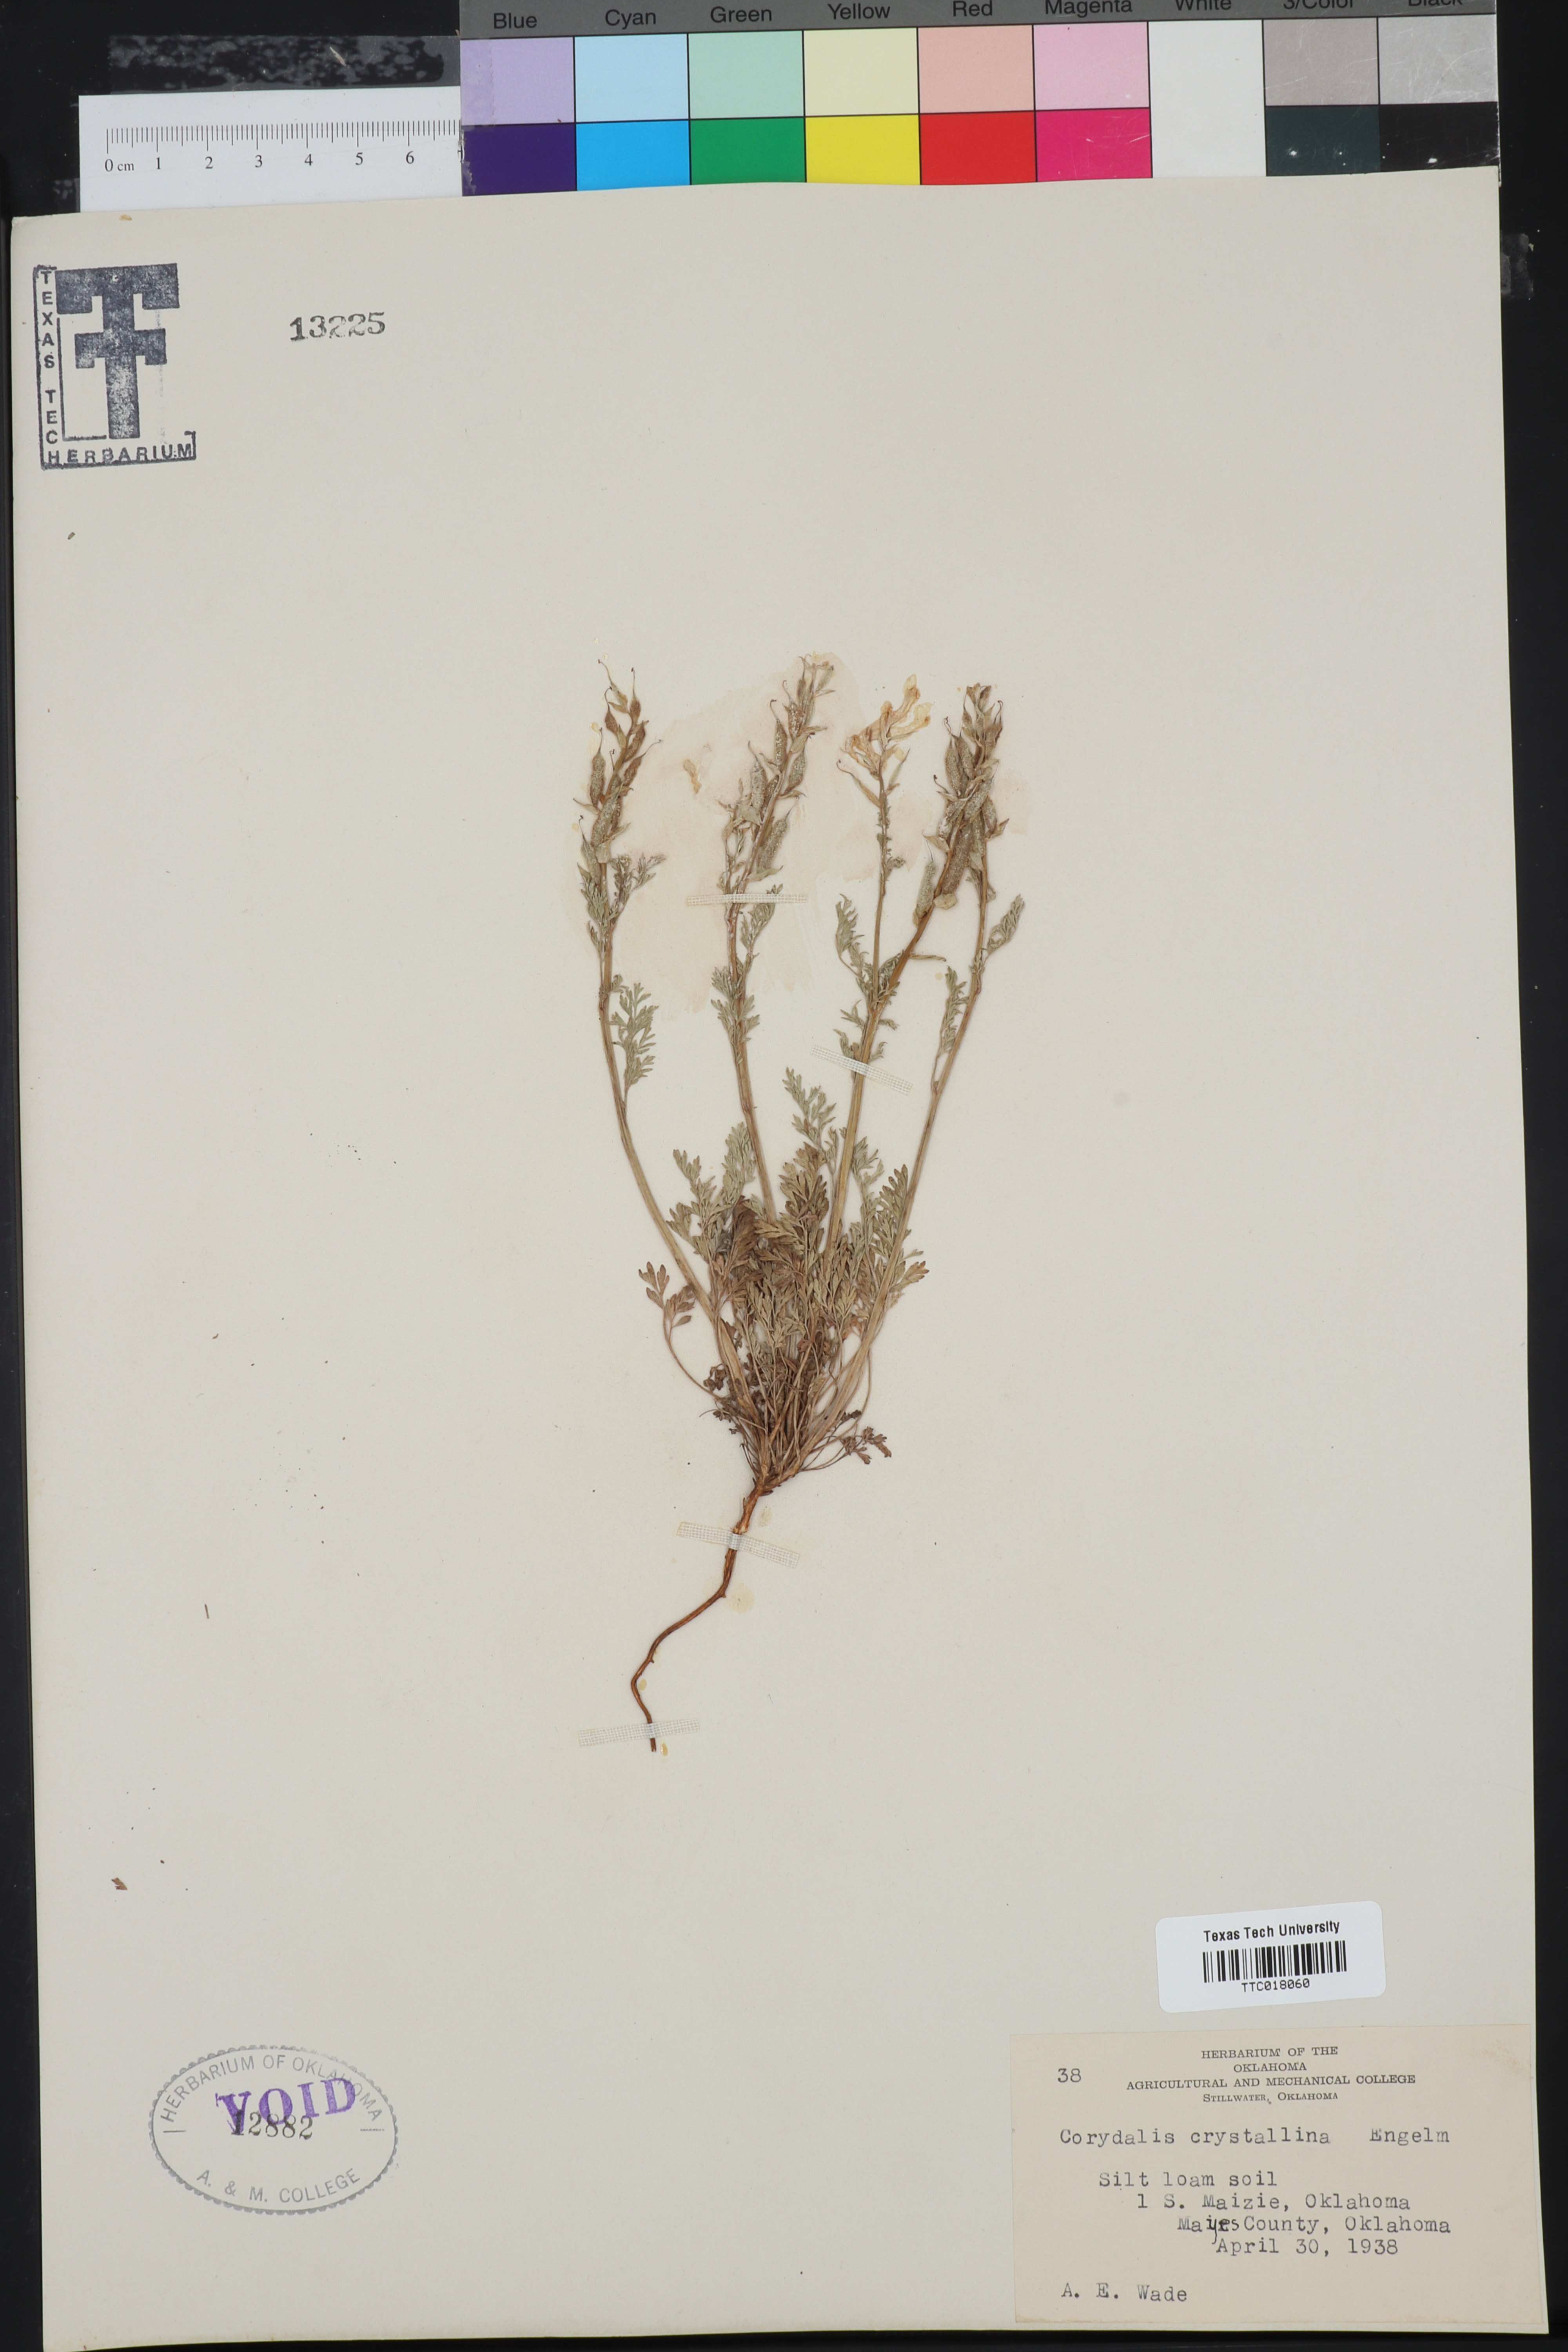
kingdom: Plantae
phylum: Tracheophyta
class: Magnoliopsida
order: Ranunculales
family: Papaveraceae
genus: Corydalis
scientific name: Corydalis crystallina
